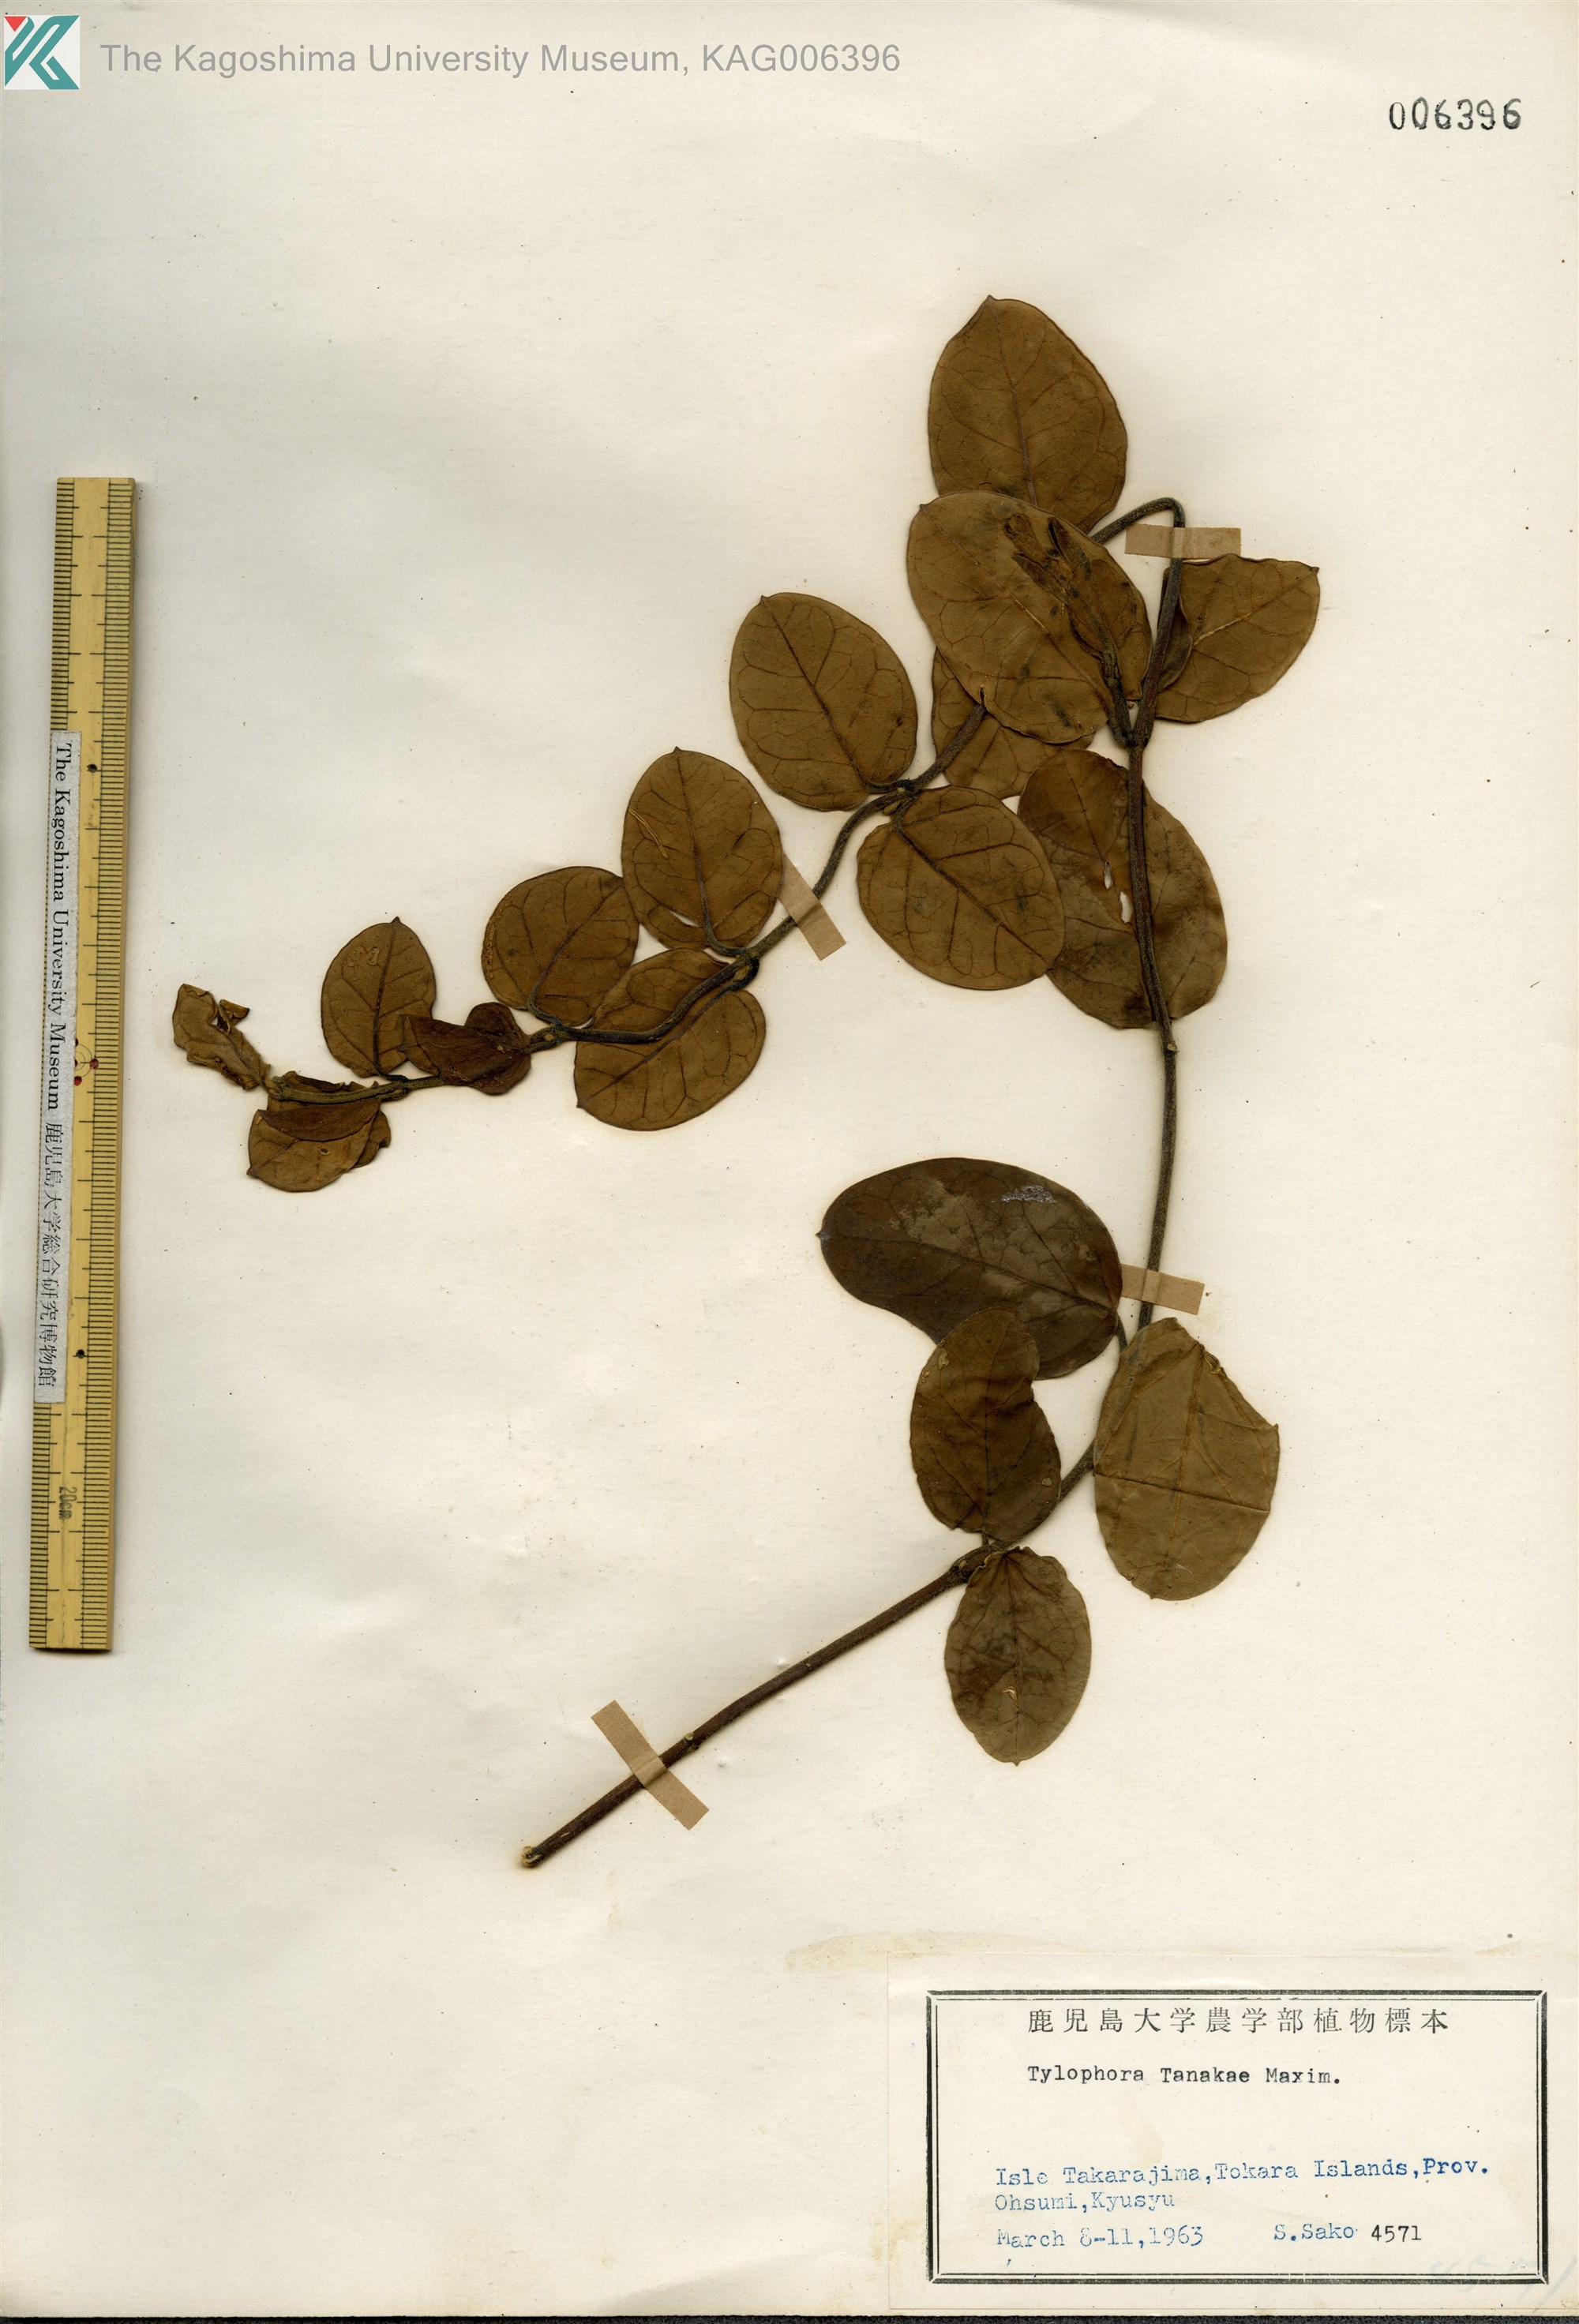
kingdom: Plantae
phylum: Tracheophyta
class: Magnoliopsida
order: Gentianales
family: Apocynaceae
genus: Vincetoxicum
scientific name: Vincetoxicum Tylophora tanakae
